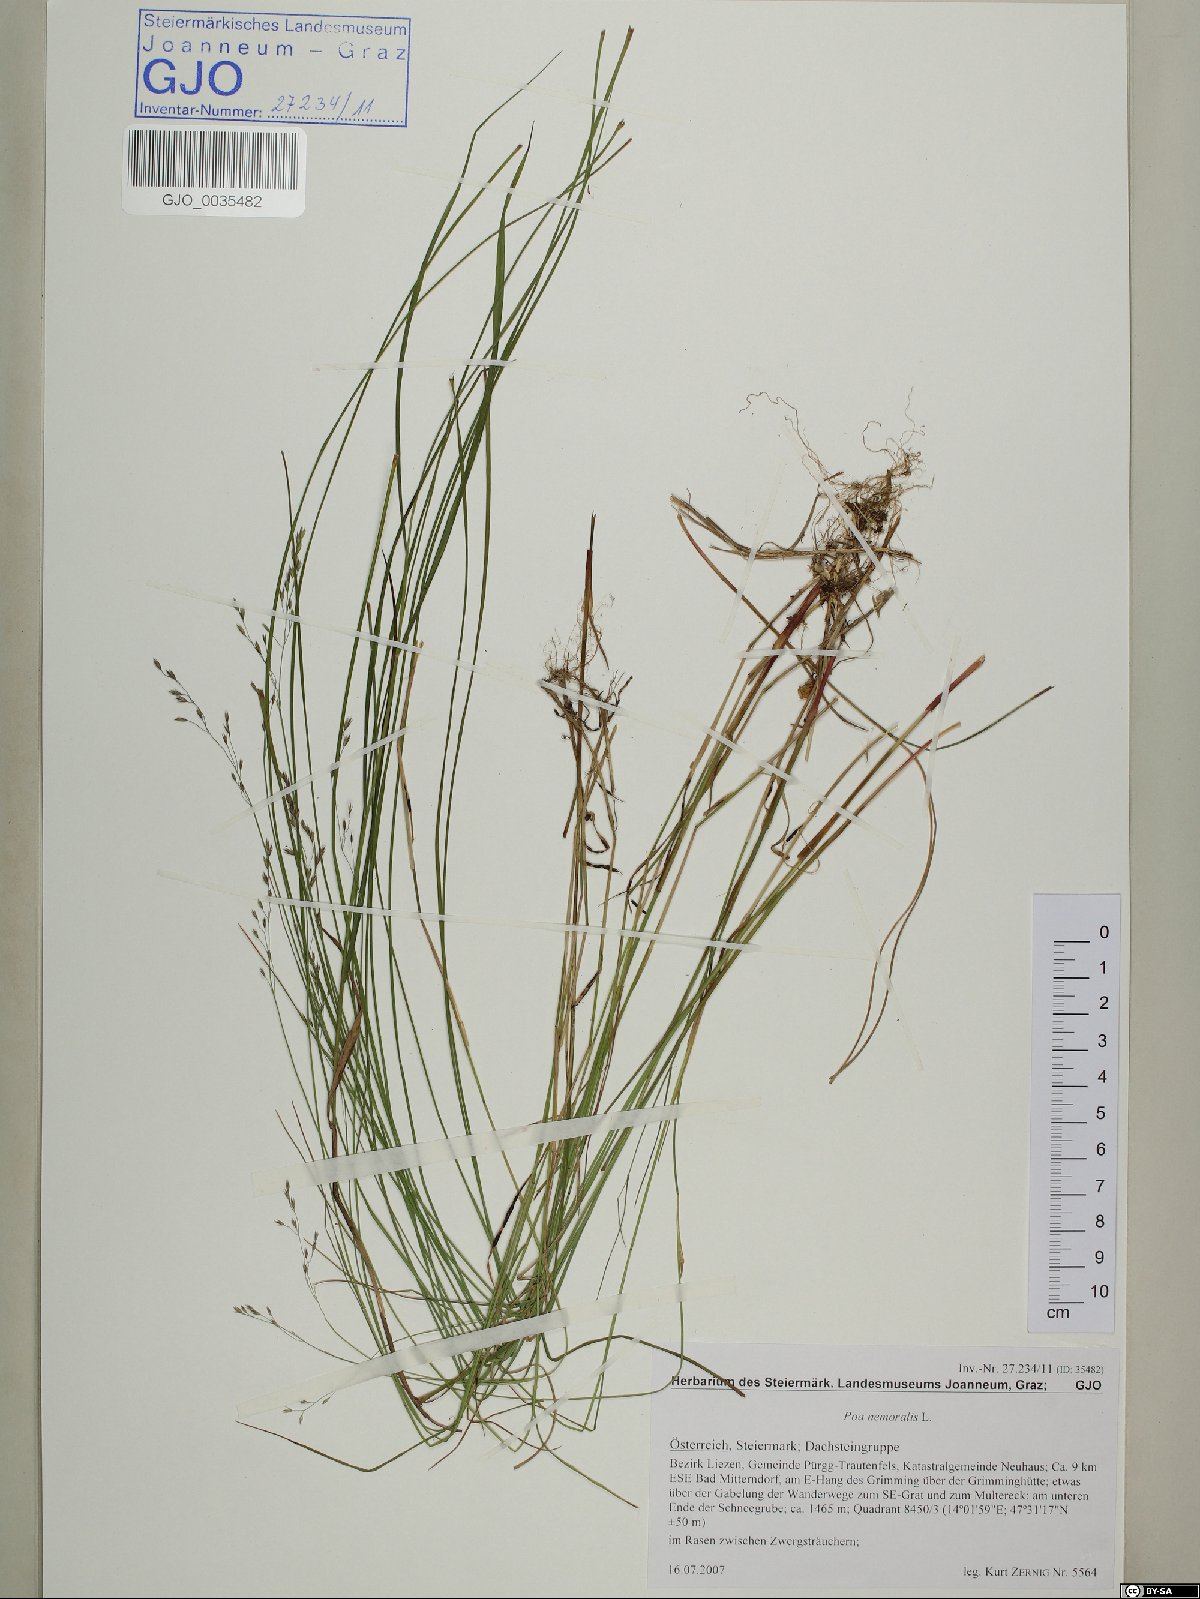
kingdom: Plantae
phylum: Tracheophyta
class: Liliopsida
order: Poales
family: Poaceae
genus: Poa
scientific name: Poa nemoralis
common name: Wood bluegrass
